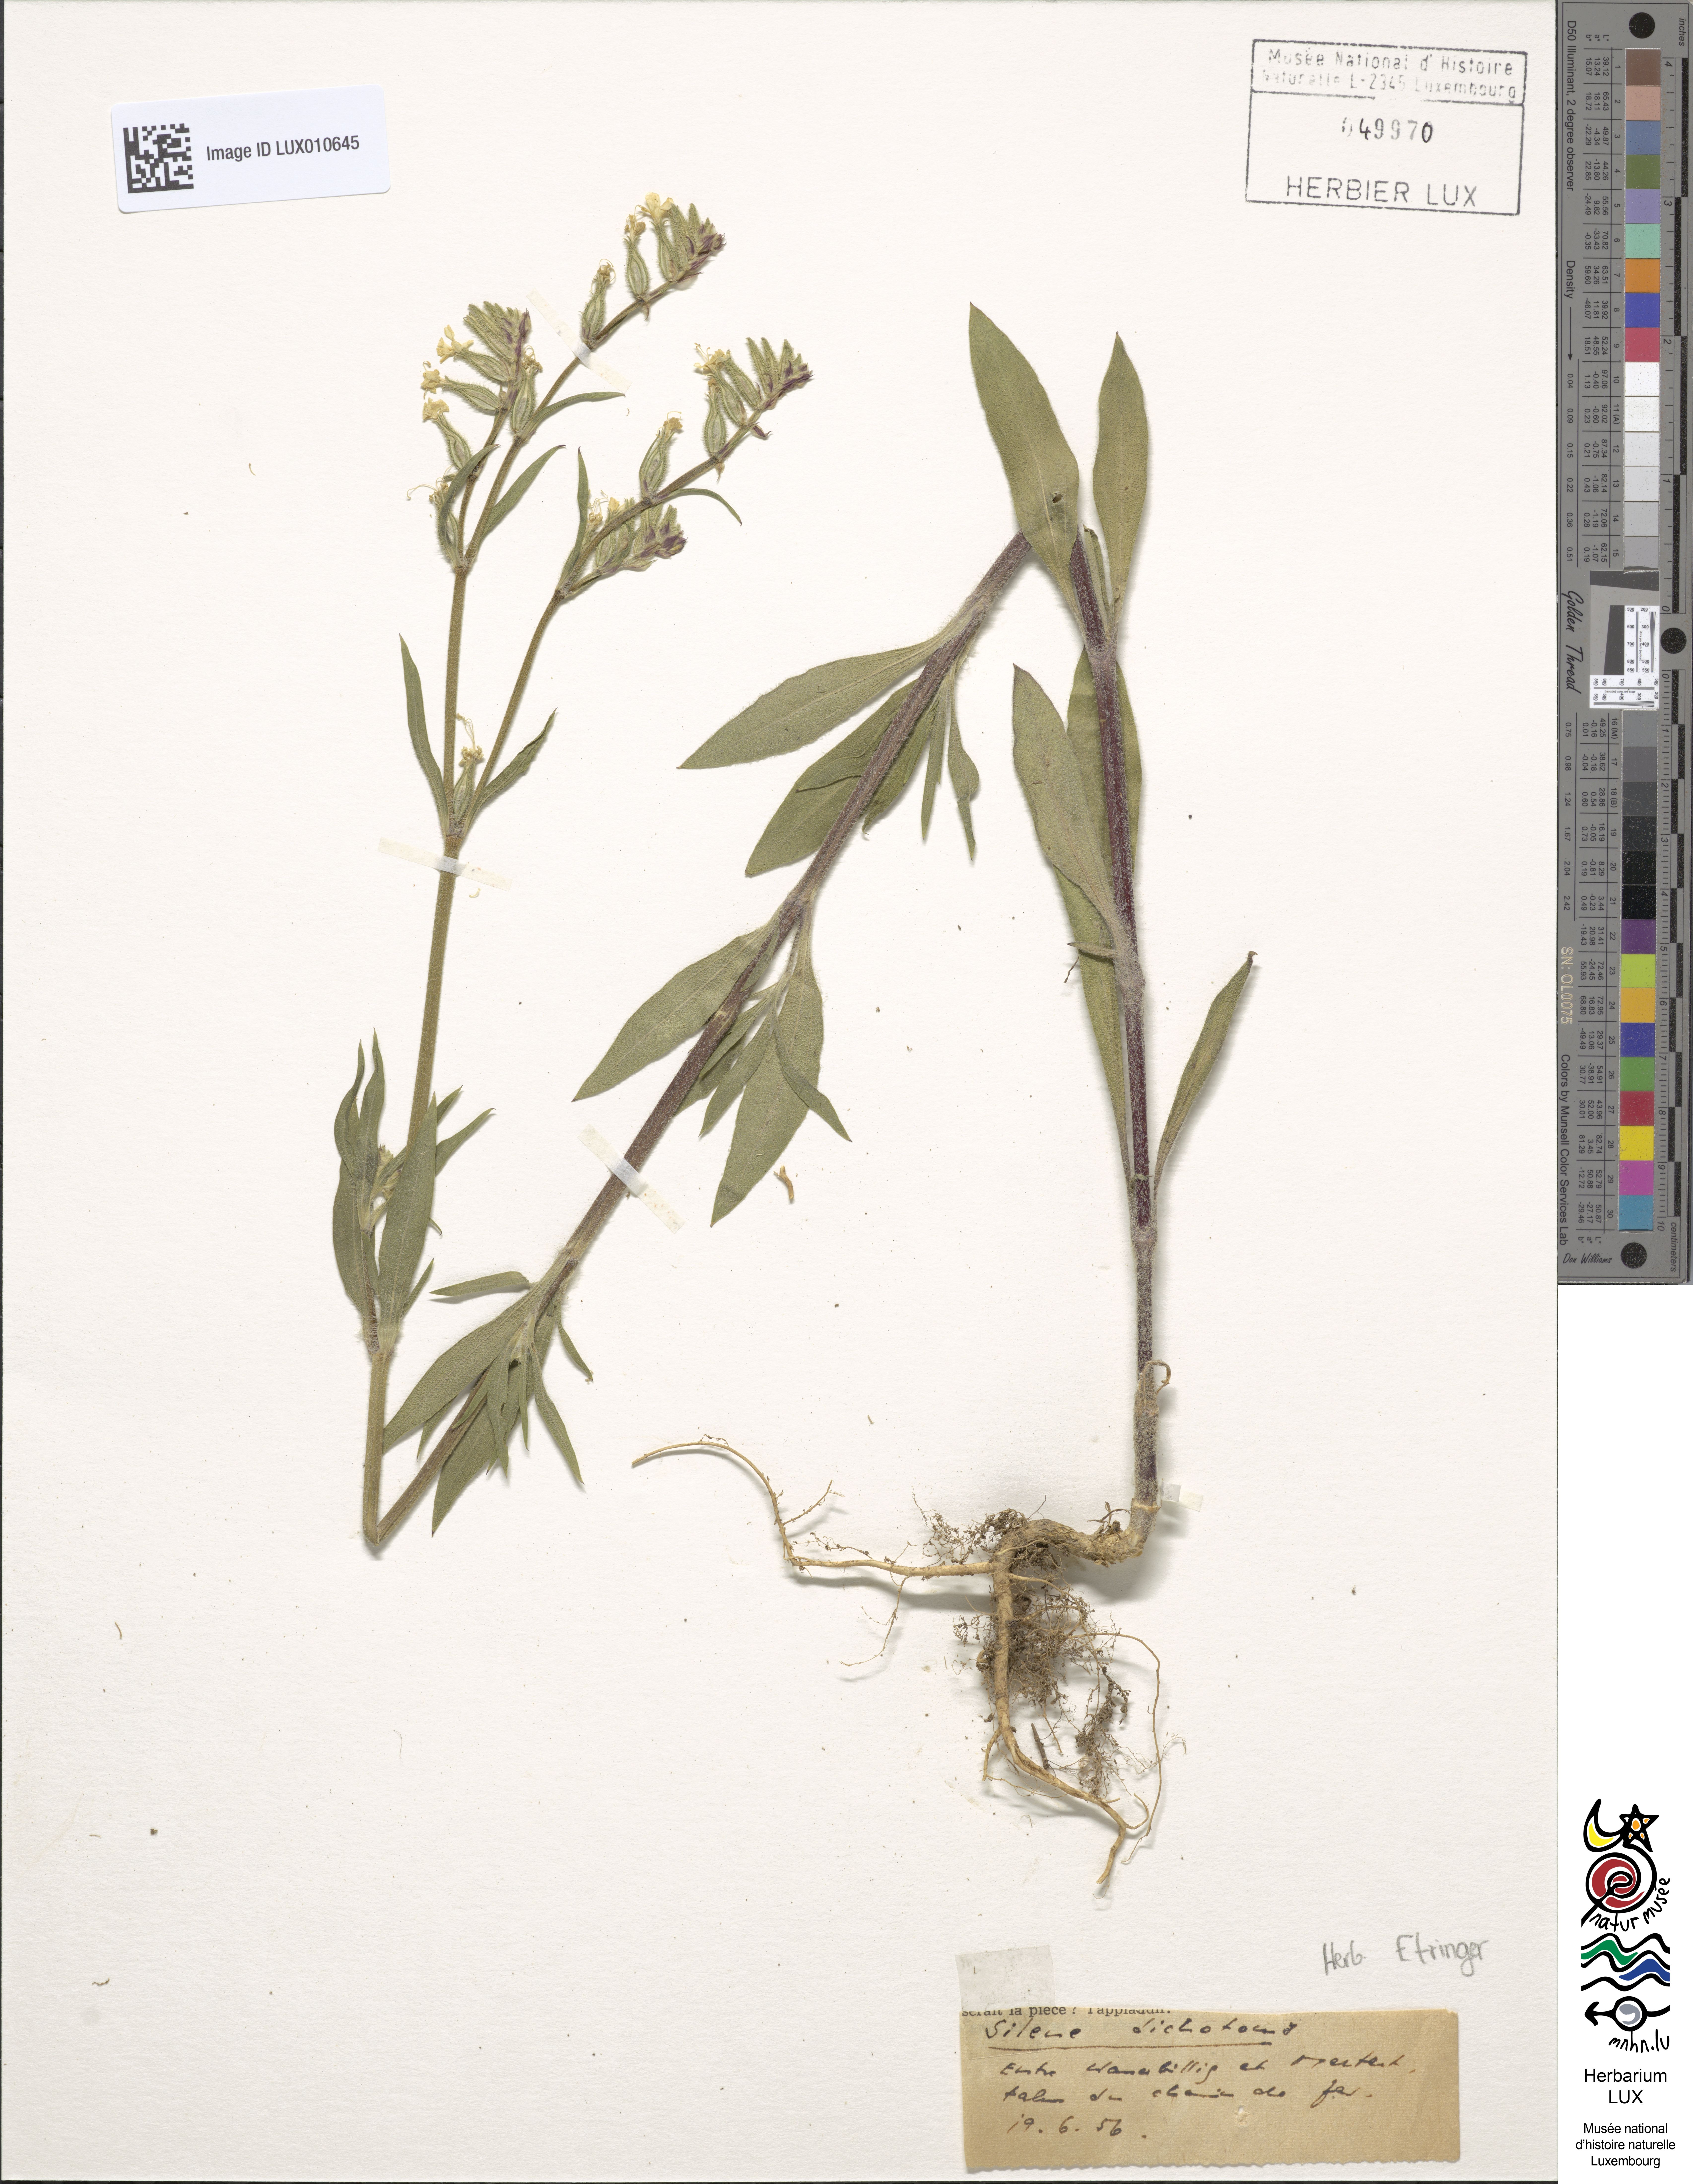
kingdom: Plantae
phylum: Tracheophyta
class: Magnoliopsida
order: Caryophyllales
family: Caryophyllaceae
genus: Silene
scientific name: Silene dichotoma
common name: Forked catchfly
